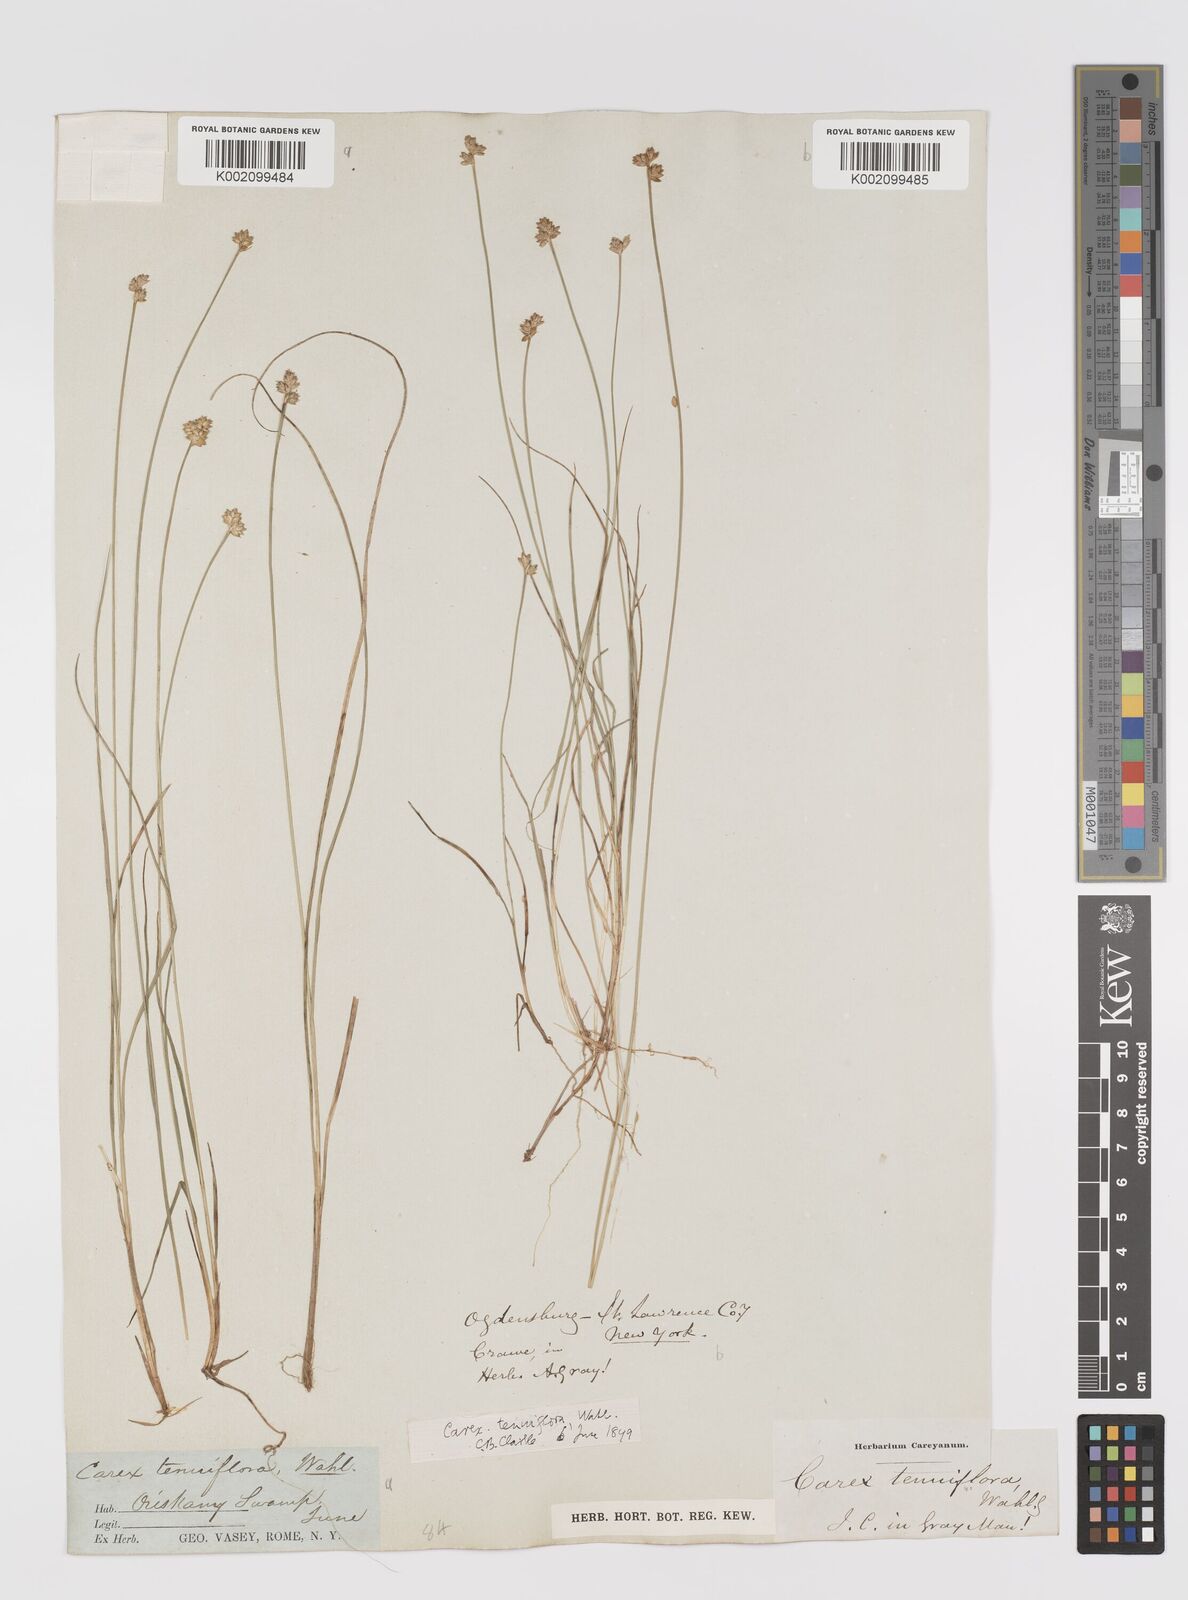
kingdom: Plantae
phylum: Tracheophyta
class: Liliopsida
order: Poales
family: Cyperaceae
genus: Carex
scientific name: Carex tenuiflora
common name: Sparse-flowered sedge
